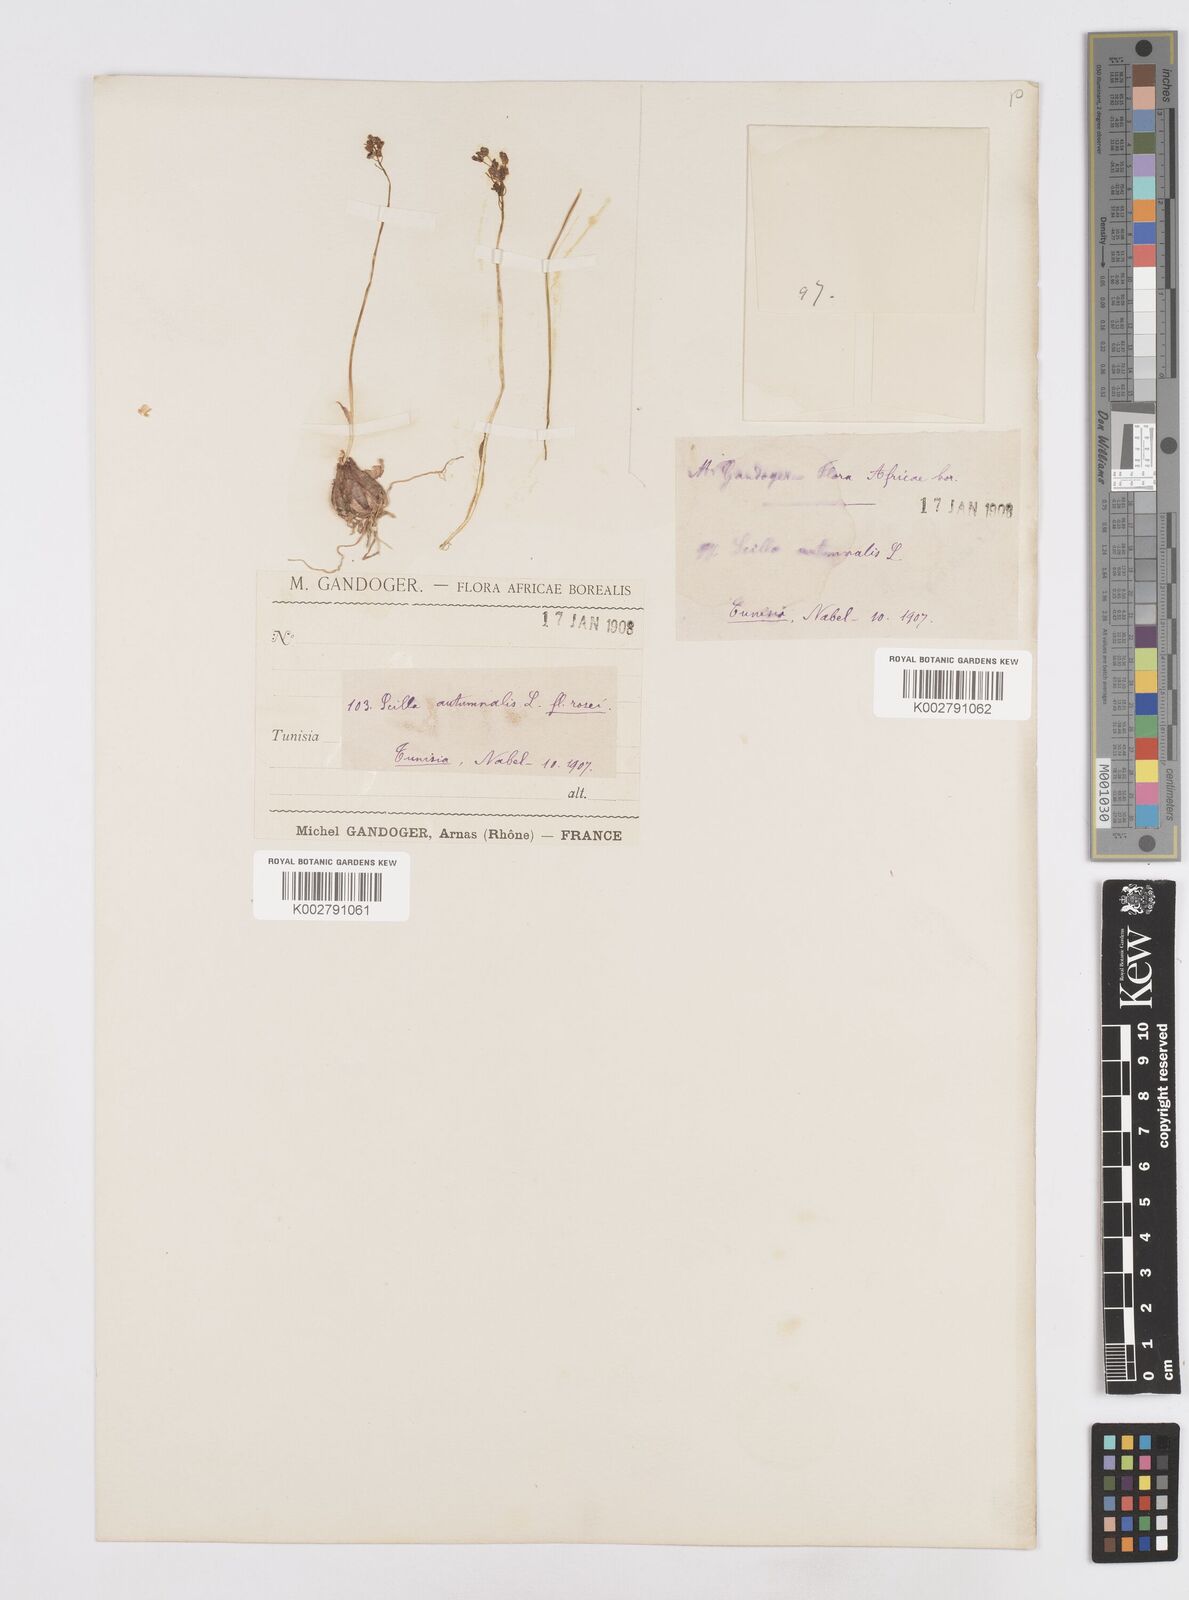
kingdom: Plantae
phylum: Tracheophyta
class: Liliopsida
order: Asparagales
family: Asparagaceae
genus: Prospero
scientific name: Prospero autumnale
